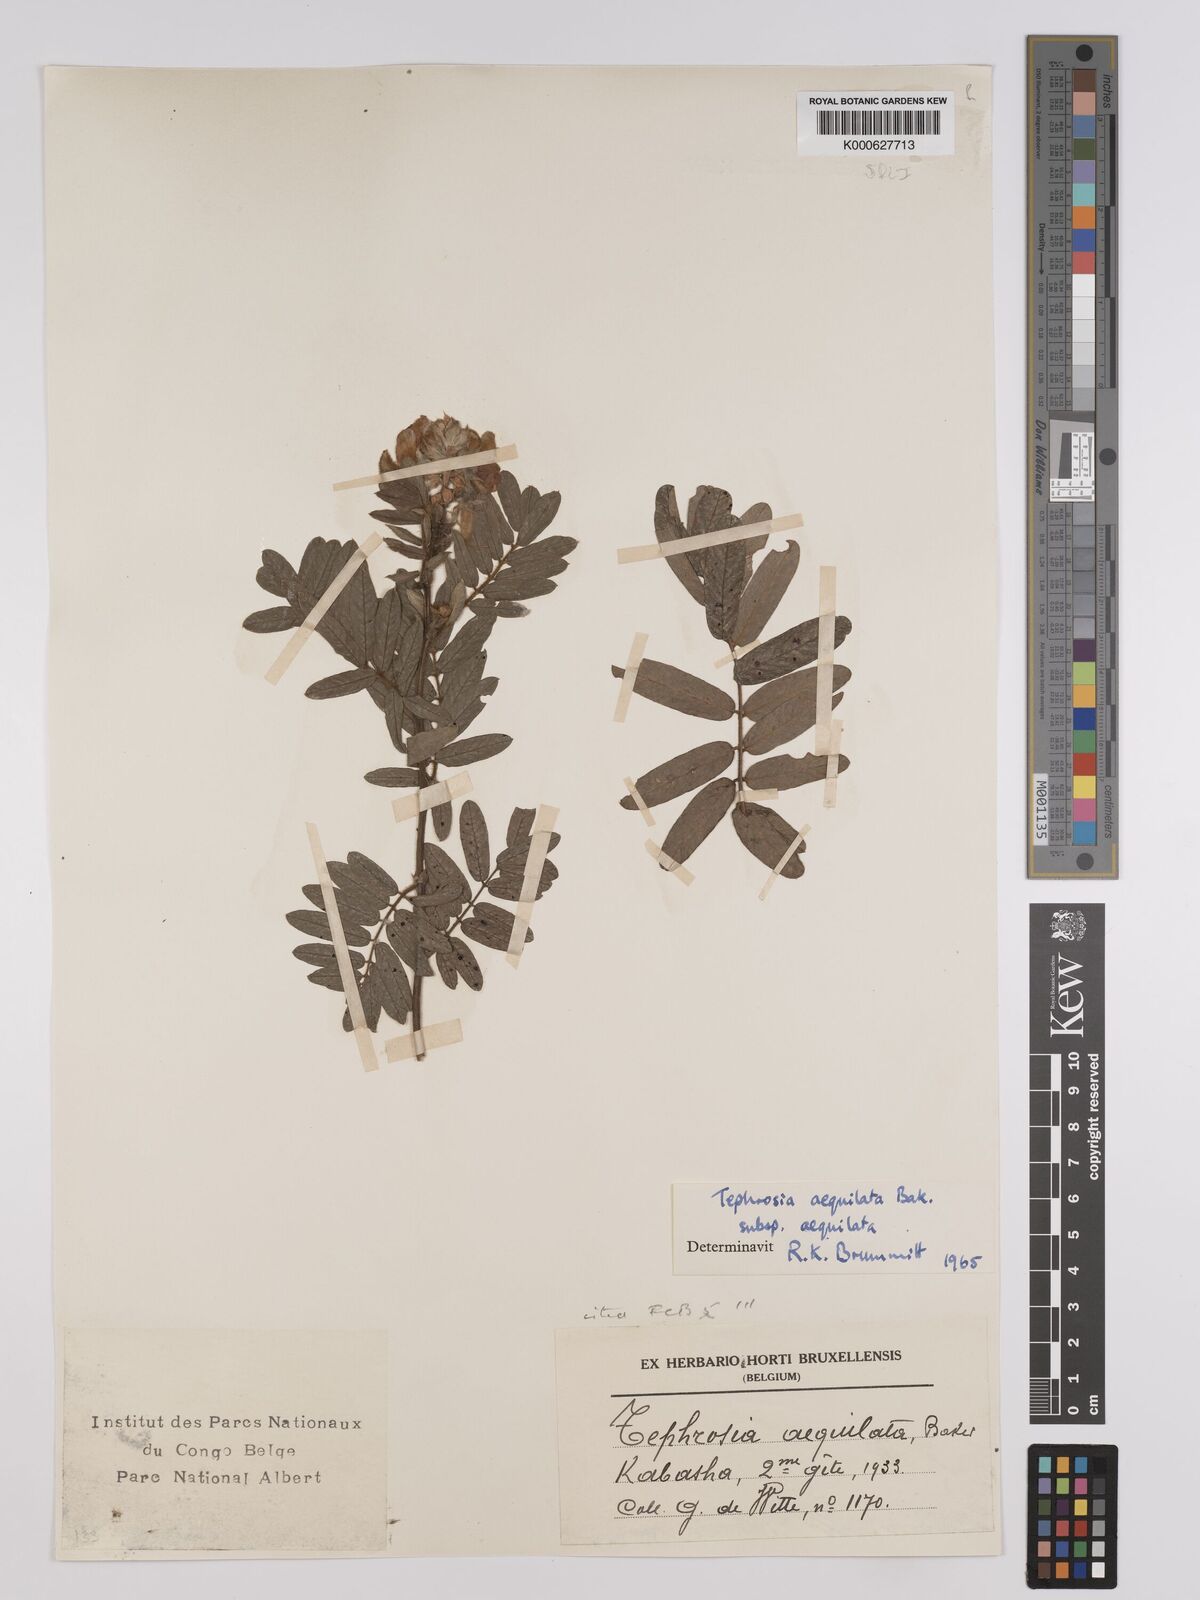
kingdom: Plantae
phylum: Tracheophyta
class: Magnoliopsida
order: Fabales
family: Fabaceae
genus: Tephrosia
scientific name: Tephrosia
